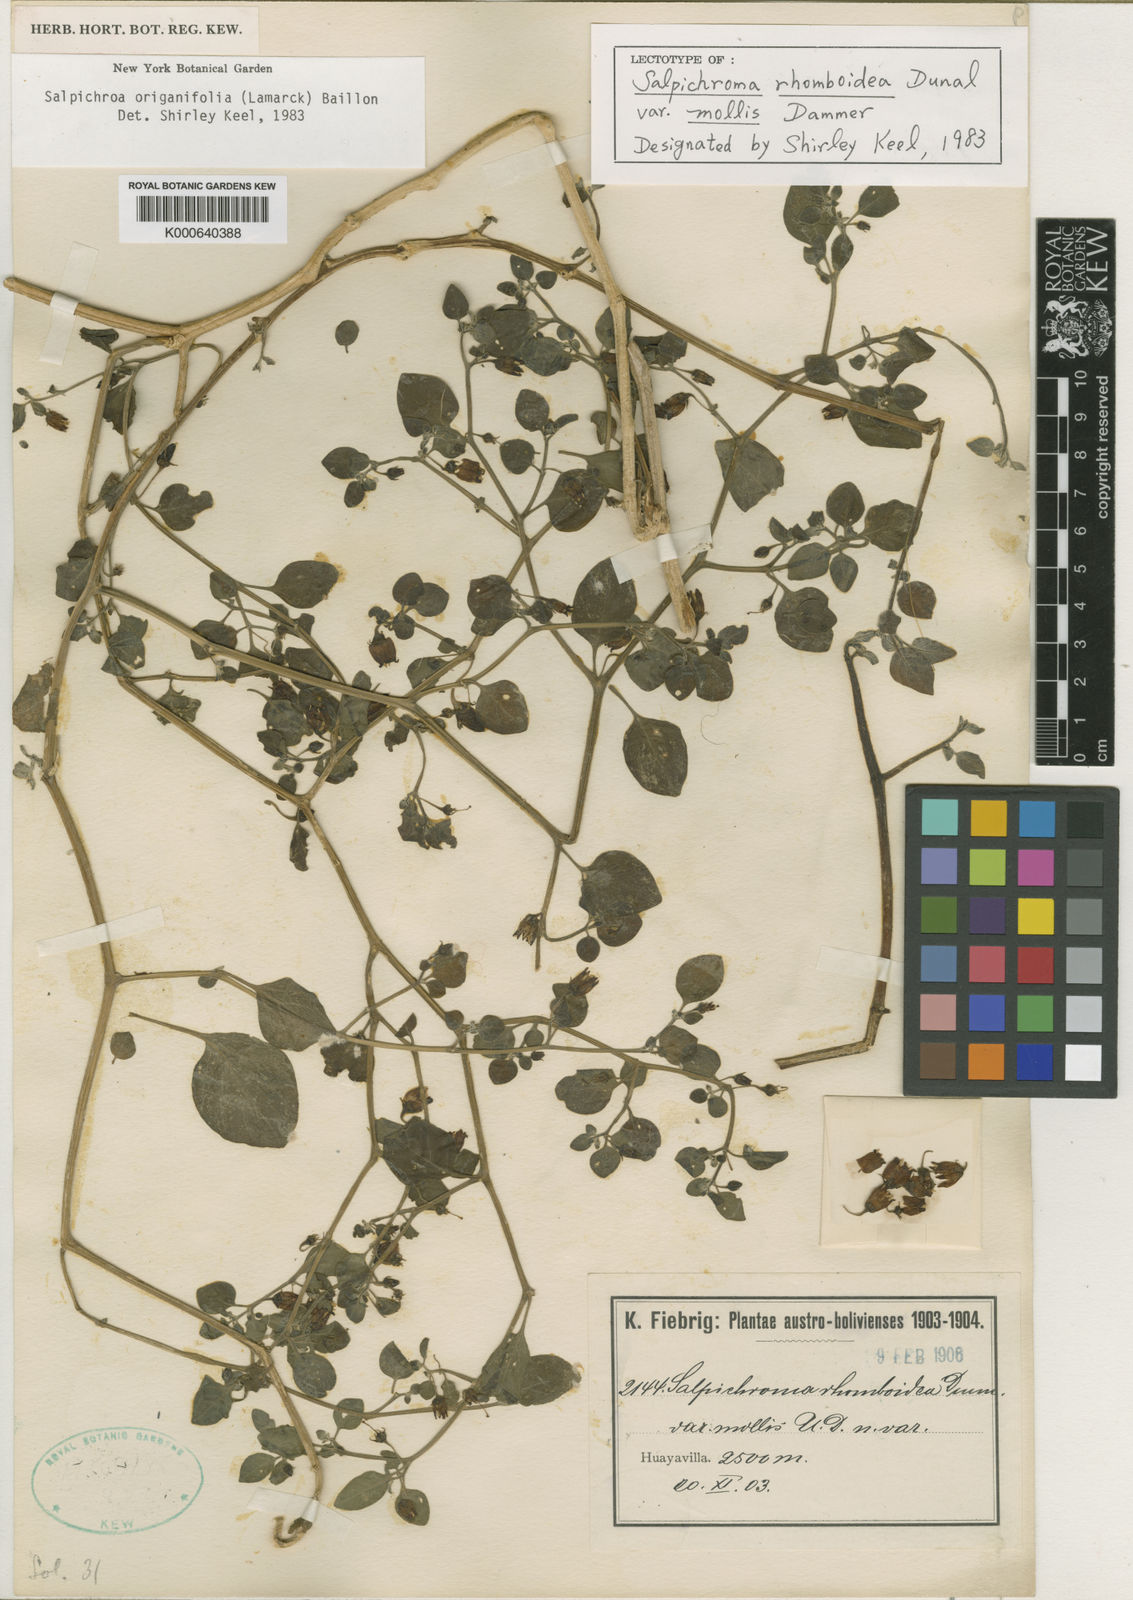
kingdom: Plantae
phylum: Tracheophyta
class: Magnoliopsida
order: Solanales
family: Solanaceae
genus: Salpichroa
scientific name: Salpichroa origanifolia
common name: Lily-of-the-valley-vine
